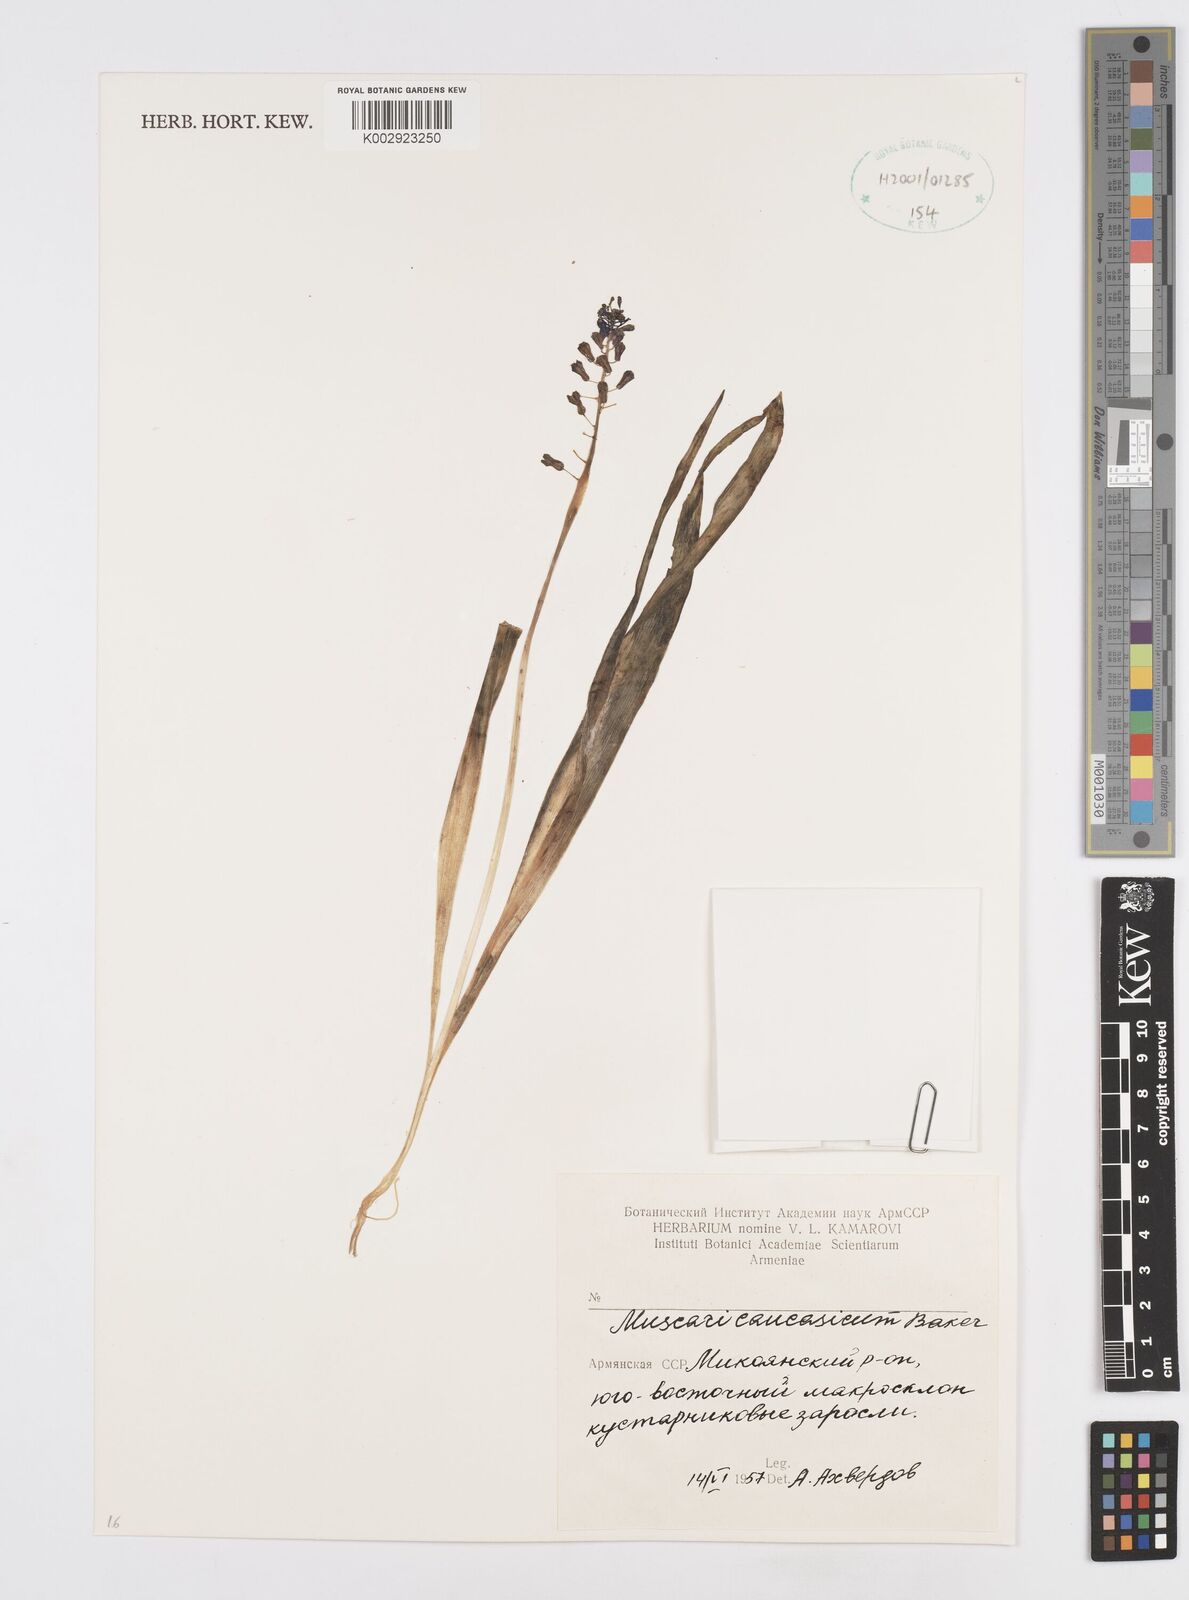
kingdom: Plantae
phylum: Tracheophyta
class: Liliopsida
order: Asparagales
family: Asparagaceae
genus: Muscari
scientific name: Muscari caucasicum
